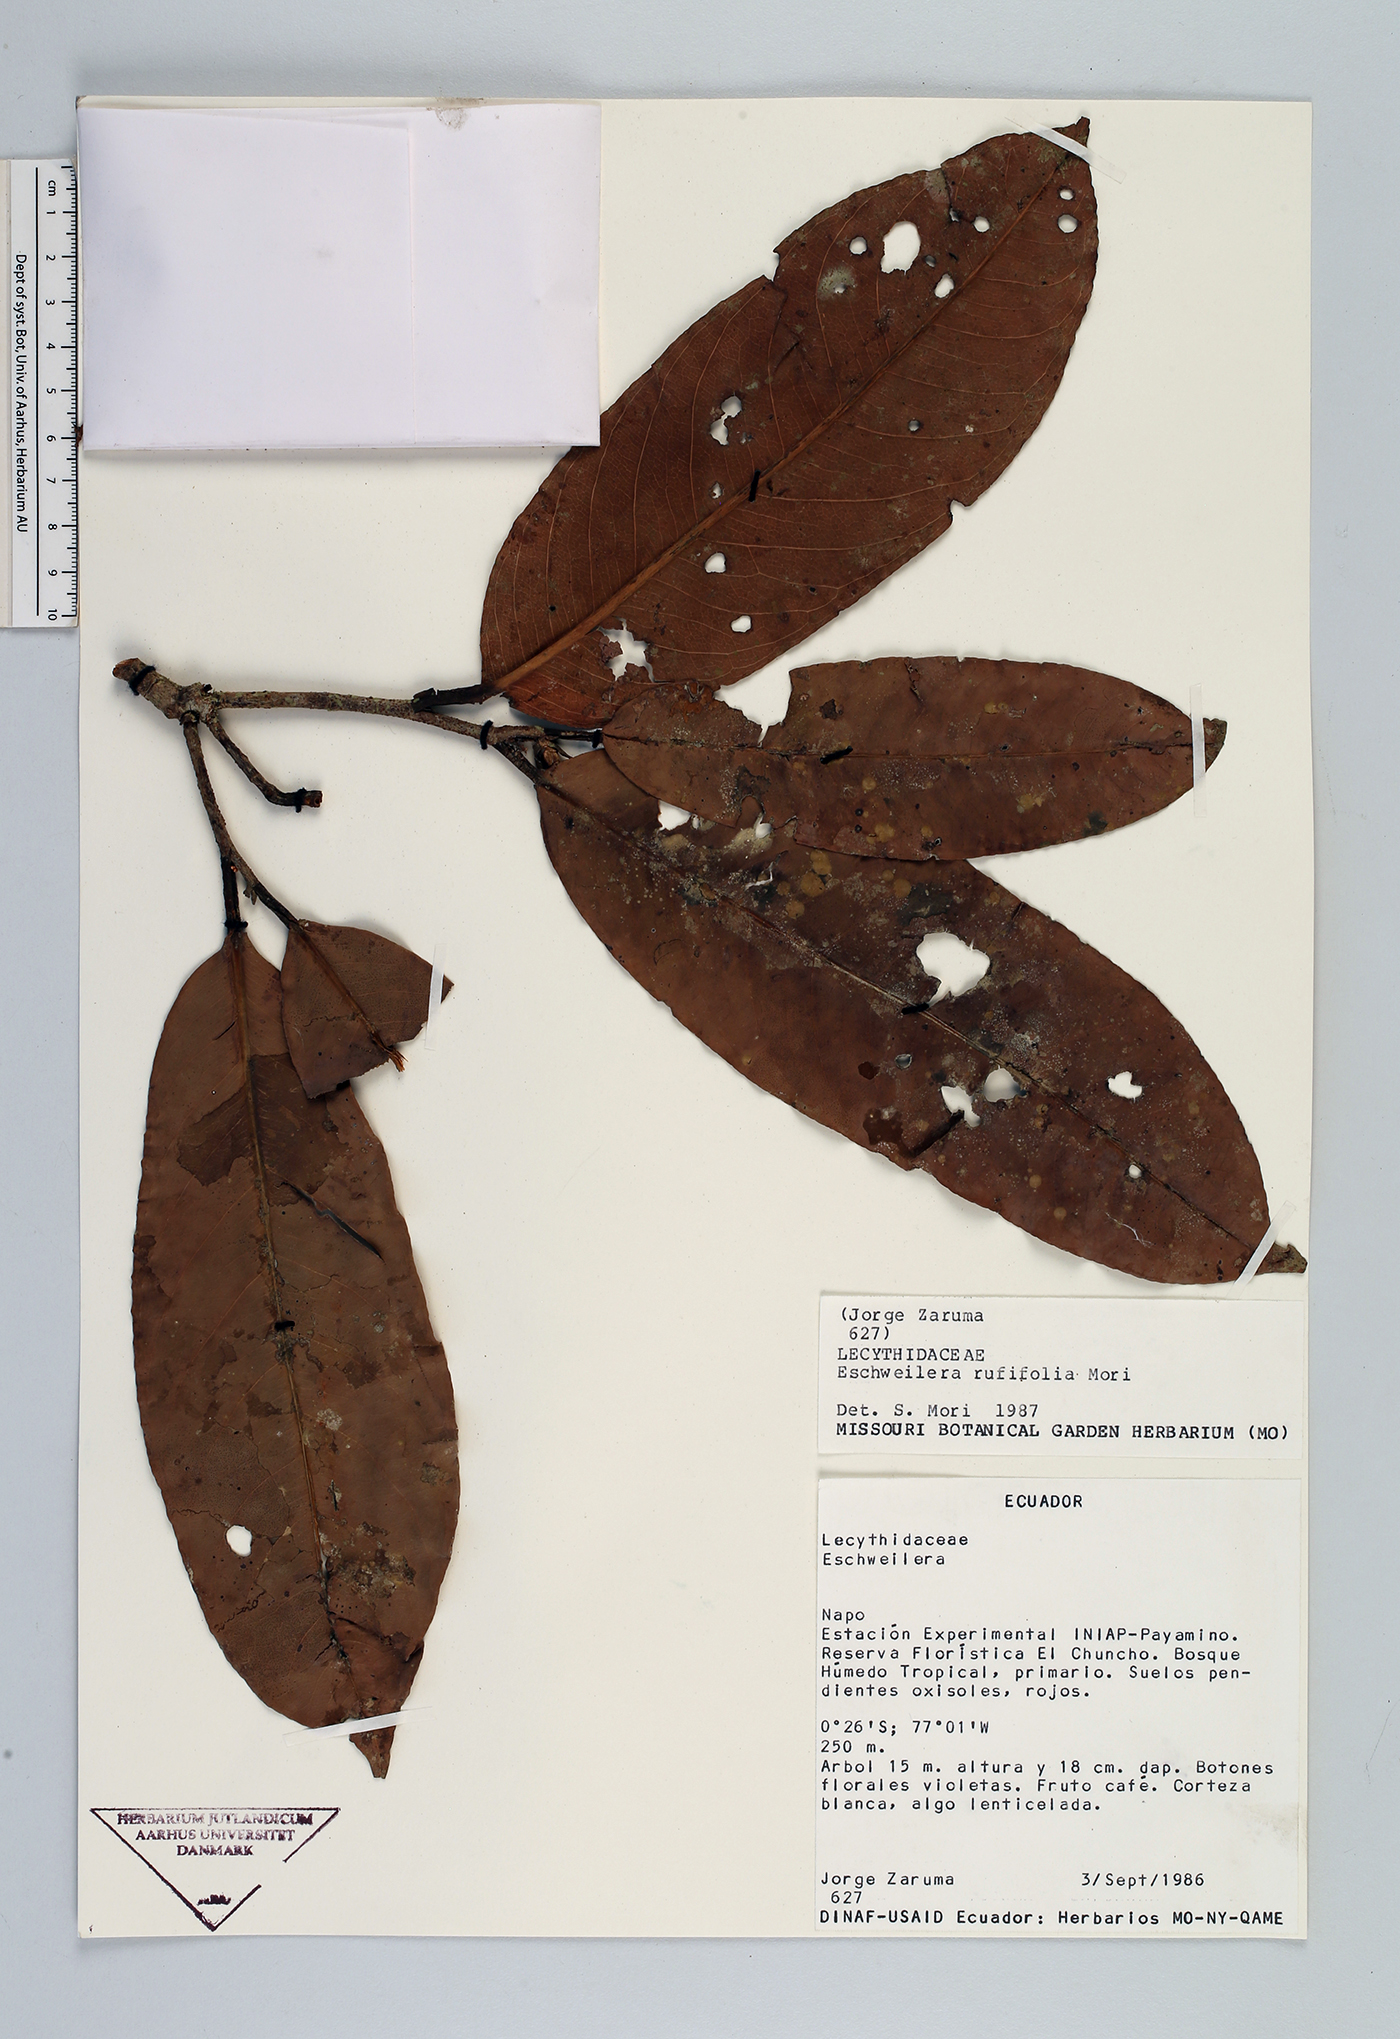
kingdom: Plantae
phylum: Tracheophyta
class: Magnoliopsida
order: Ericales
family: Lecythidaceae
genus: Eschweilera
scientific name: Eschweilera rufifolia
